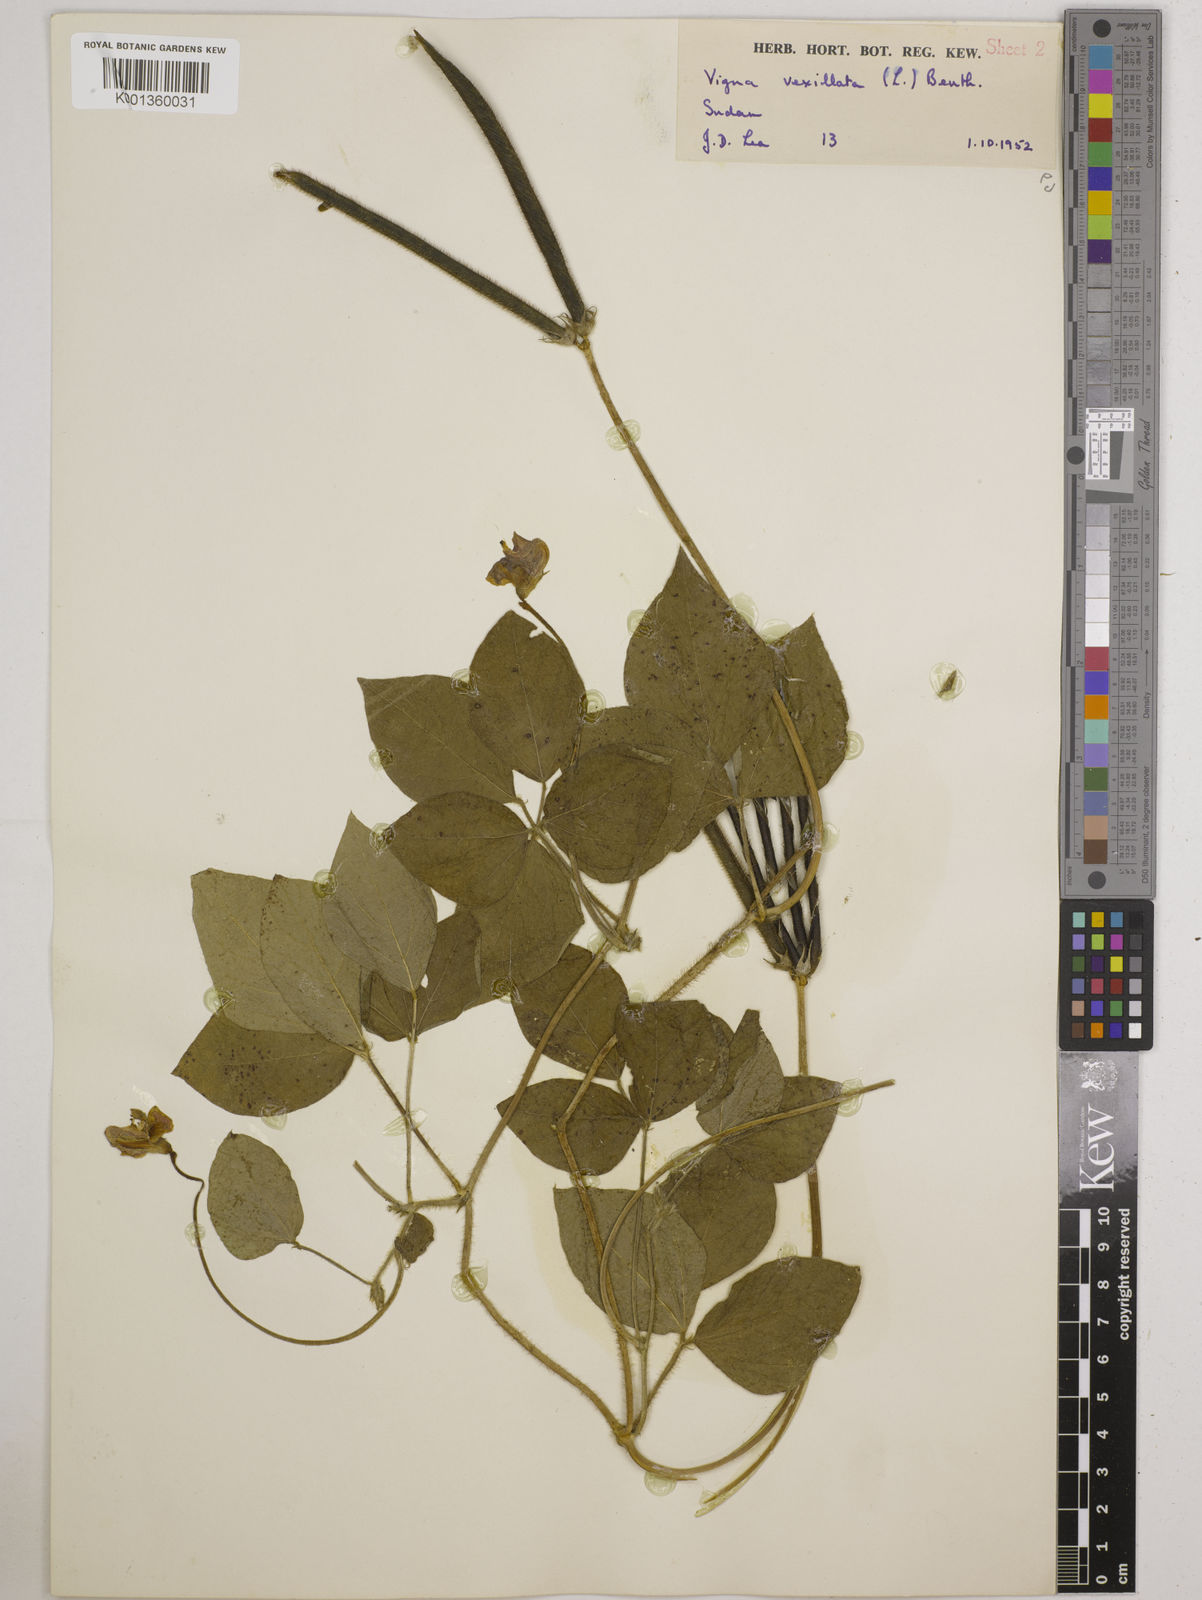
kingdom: Plantae
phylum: Tracheophyta
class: Magnoliopsida
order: Fabales
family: Fabaceae
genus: Vigna
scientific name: Vigna vexillata
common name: Zombi pea
